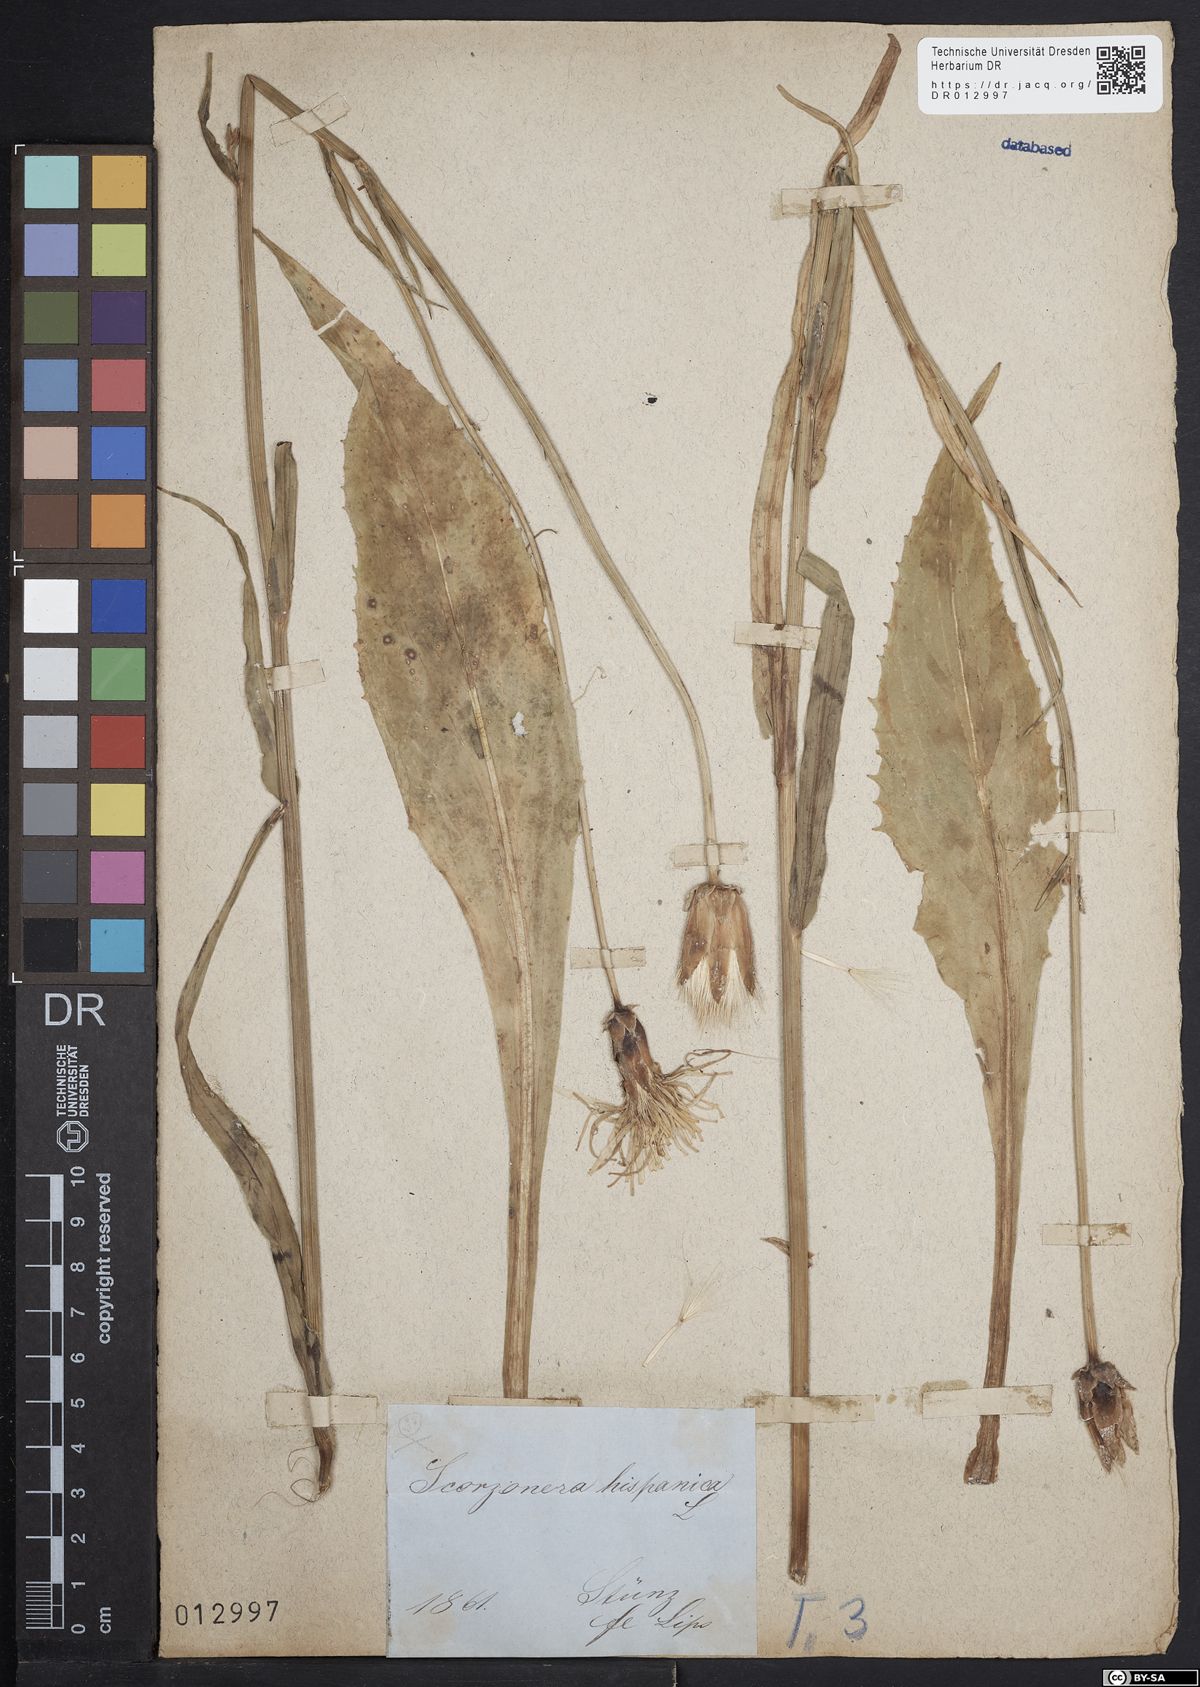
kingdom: Plantae
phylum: Tracheophyta
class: Magnoliopsida
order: Asterales
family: Asteraceae
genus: Pseudopodospermum
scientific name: Pseudopodospermum hispanicum
